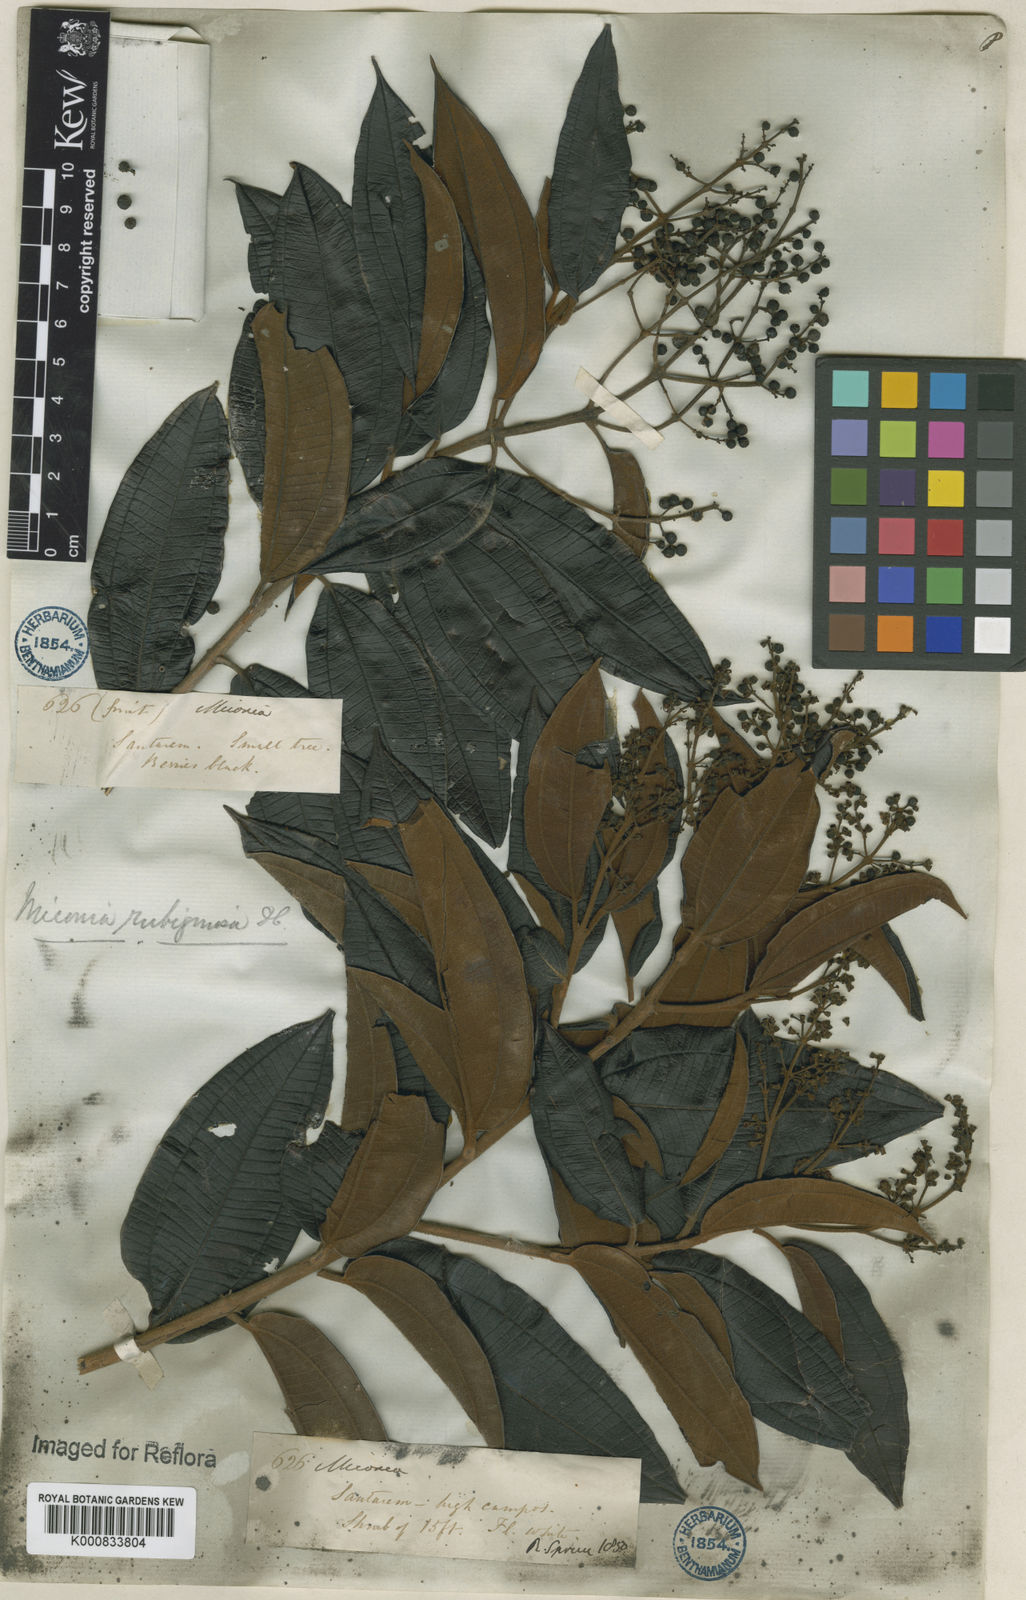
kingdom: Plantae
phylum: Tracheophyta
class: Magnoliopsida
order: Myrtales
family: Melastomataceae
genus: Miconia
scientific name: Miconia rubiginosa
